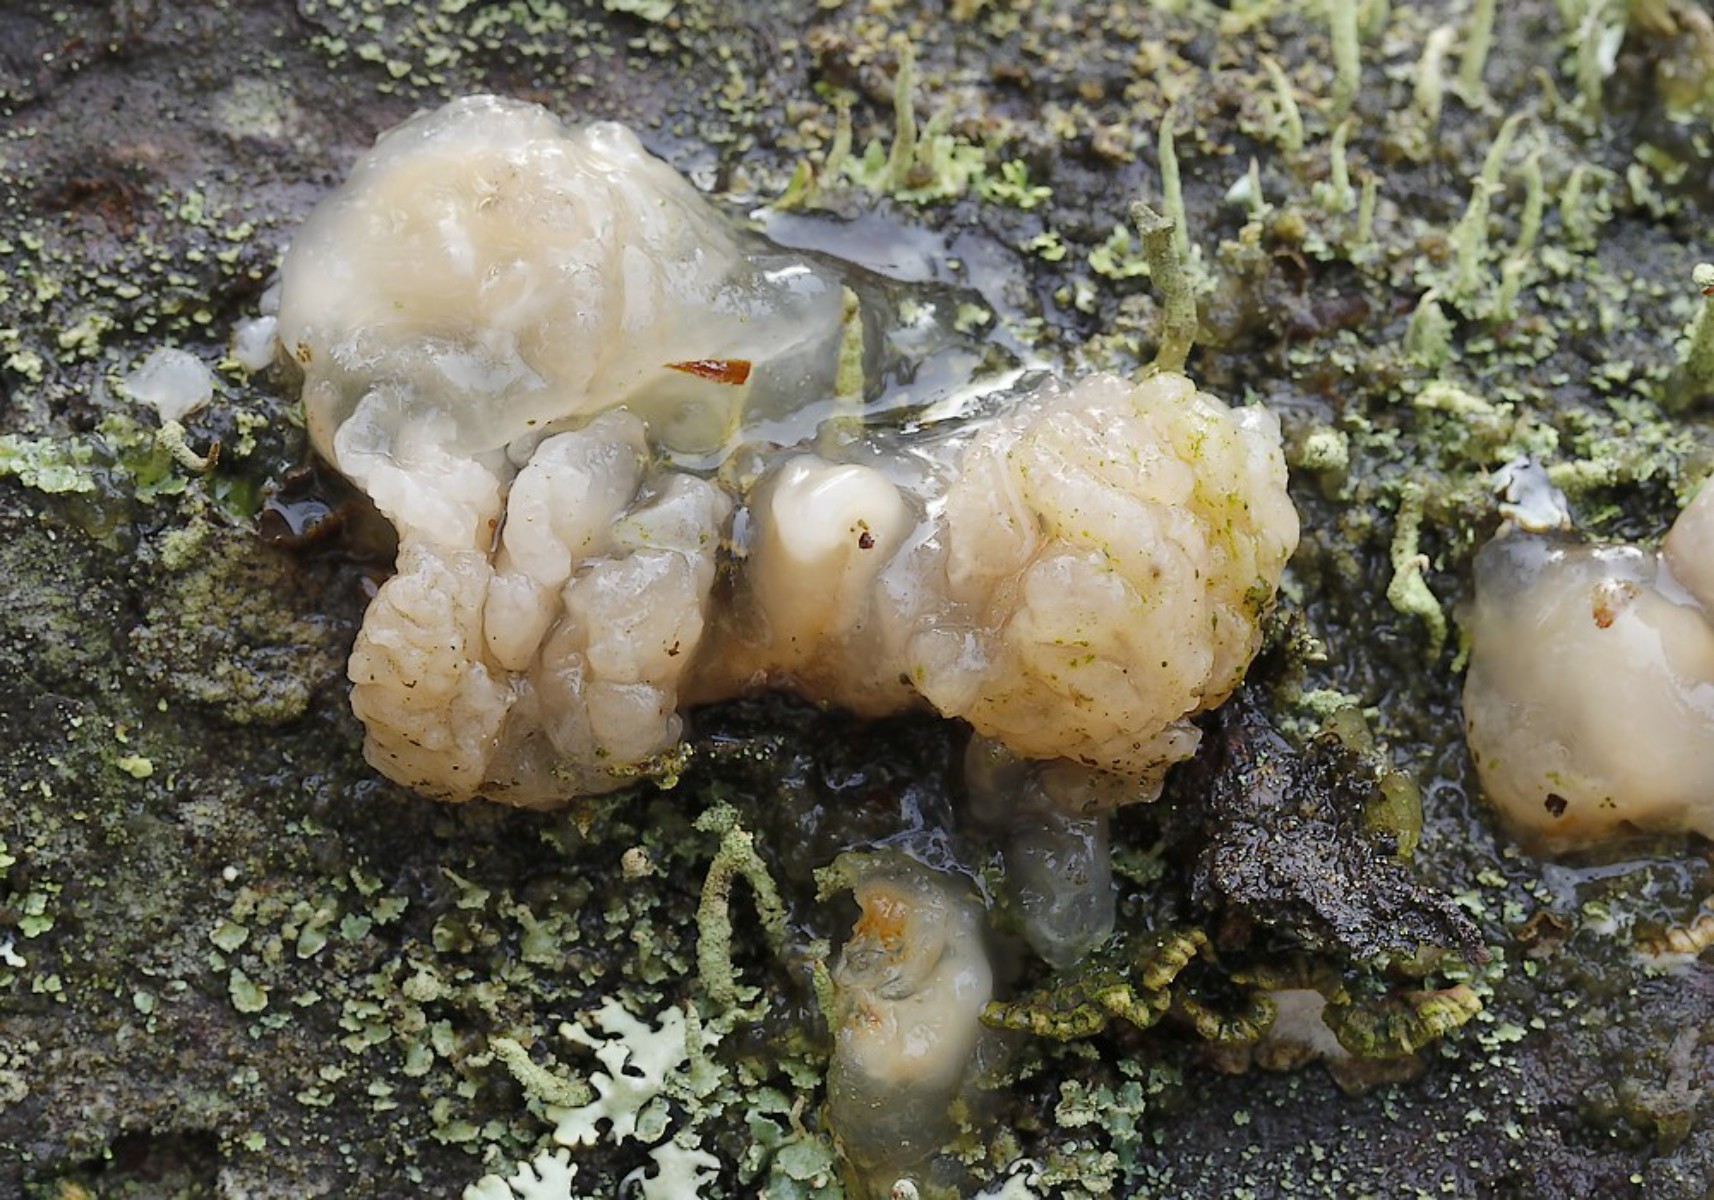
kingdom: Fungi
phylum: Basidiomycota
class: Tremellomycetes
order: Tremellales
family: Naemateliaceae
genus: Naematelia
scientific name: Naematelia encephala
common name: fyrre-bævresvamp
